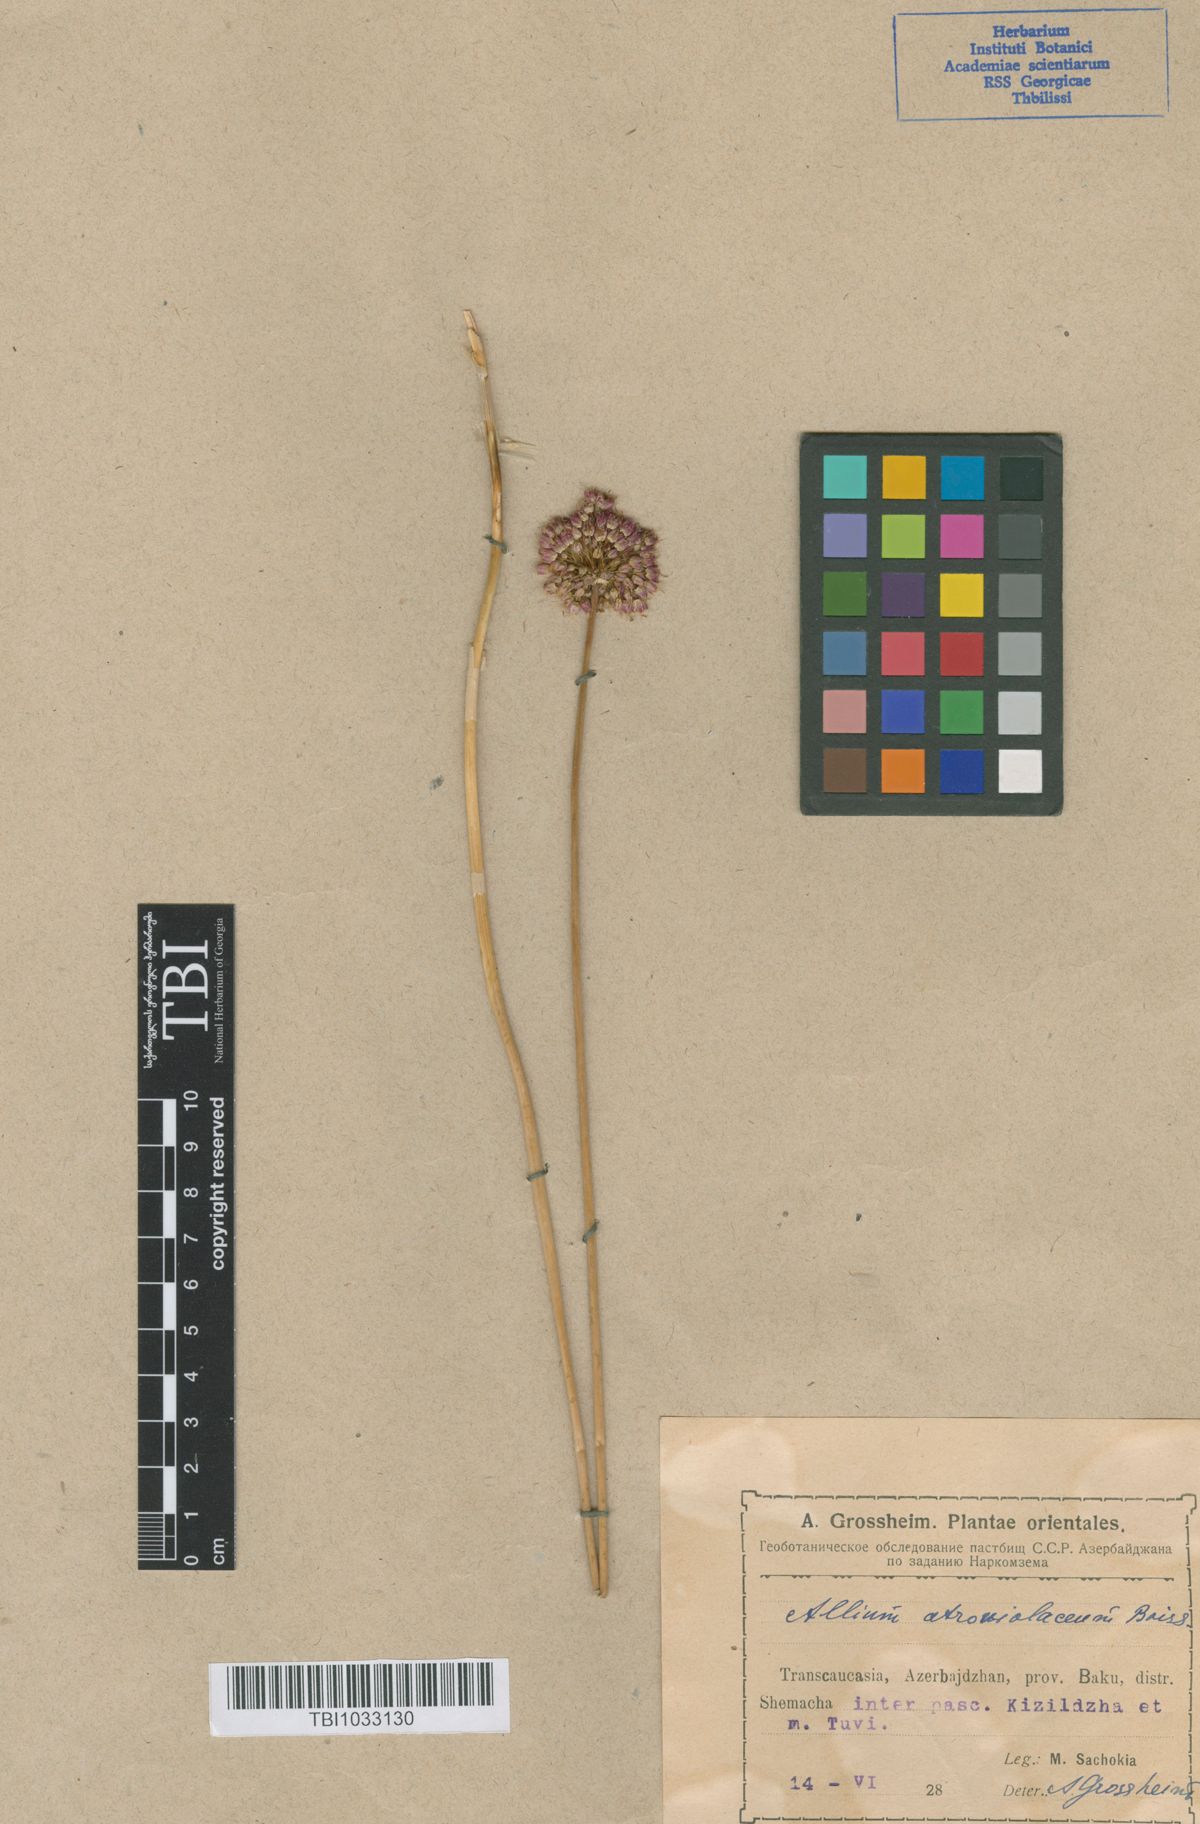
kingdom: Plantae
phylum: Tracheophyta
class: Liliopsida
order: Asparagales
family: Amaryllidaceae
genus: Allium
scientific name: Allium atroviolaceum
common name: Broadleaf wild leek
